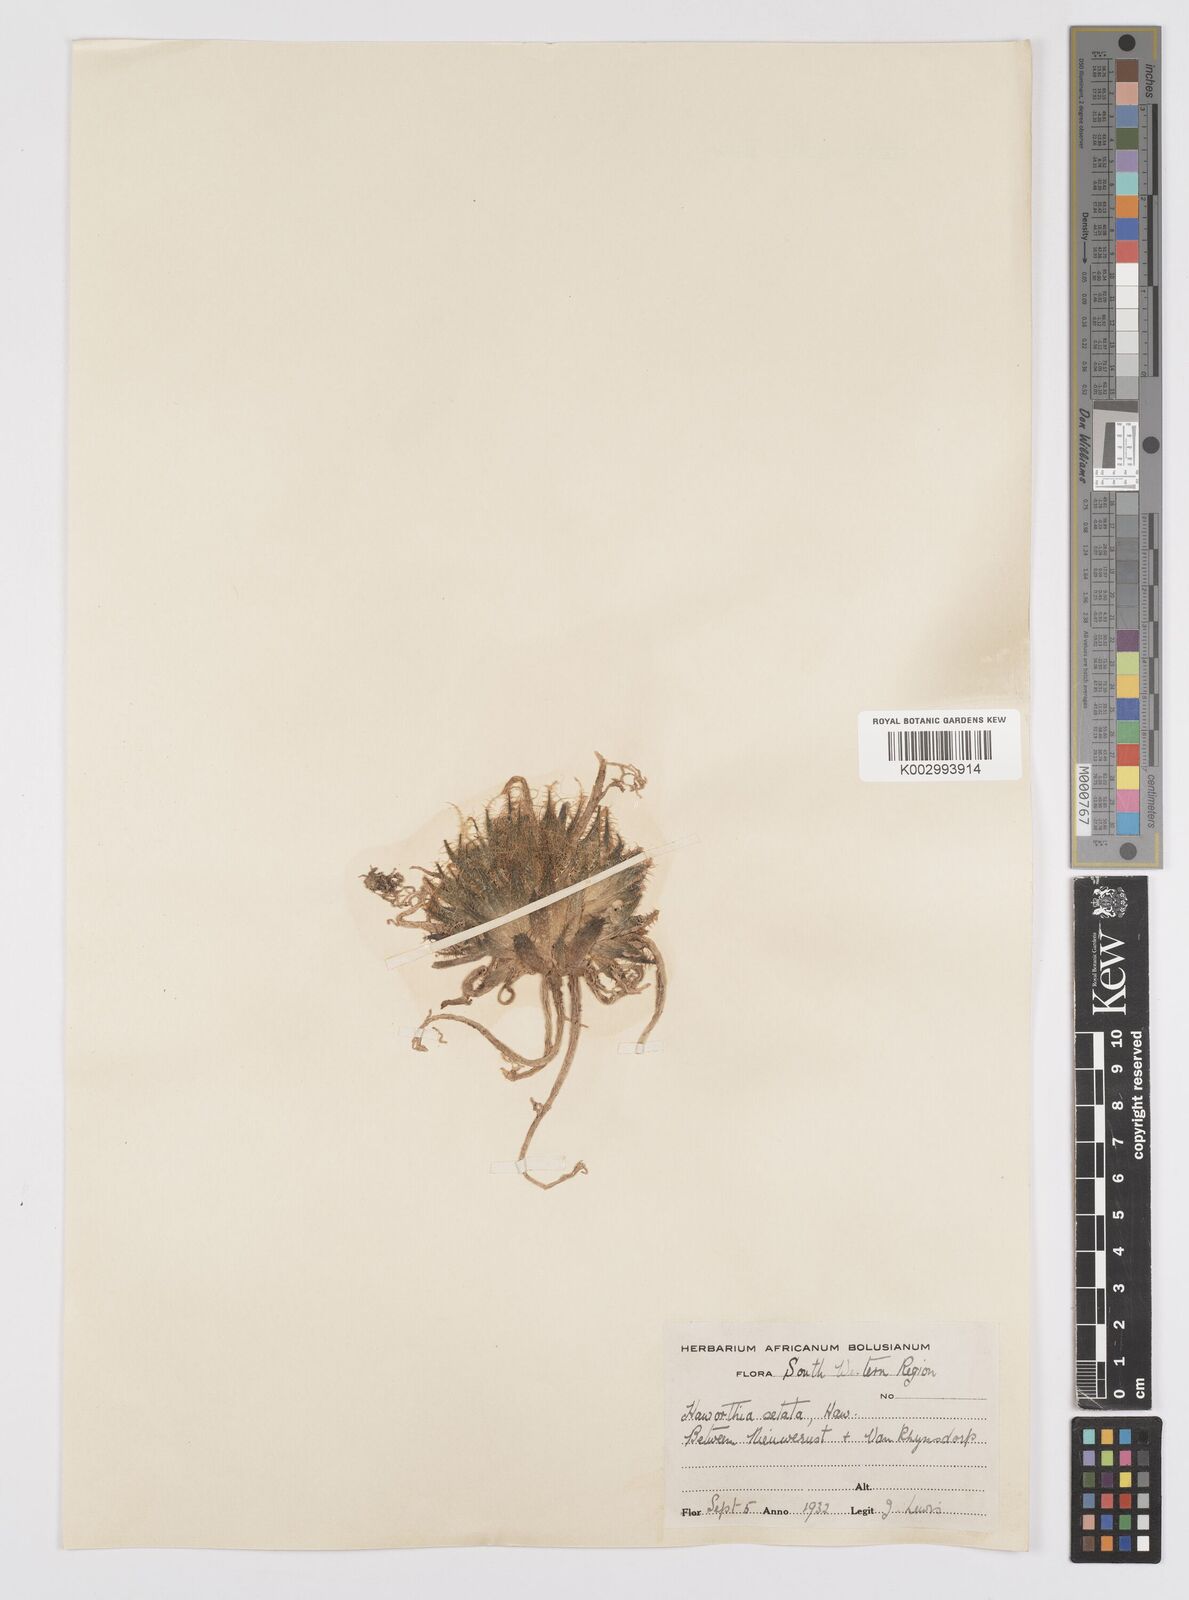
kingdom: Plantae
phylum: Tracheophyta
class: Liliopsida
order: Asparagales
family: Asphodelaceae
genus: Haworthia
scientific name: Haworthia arachnoidea
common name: Cobweb-aloe
